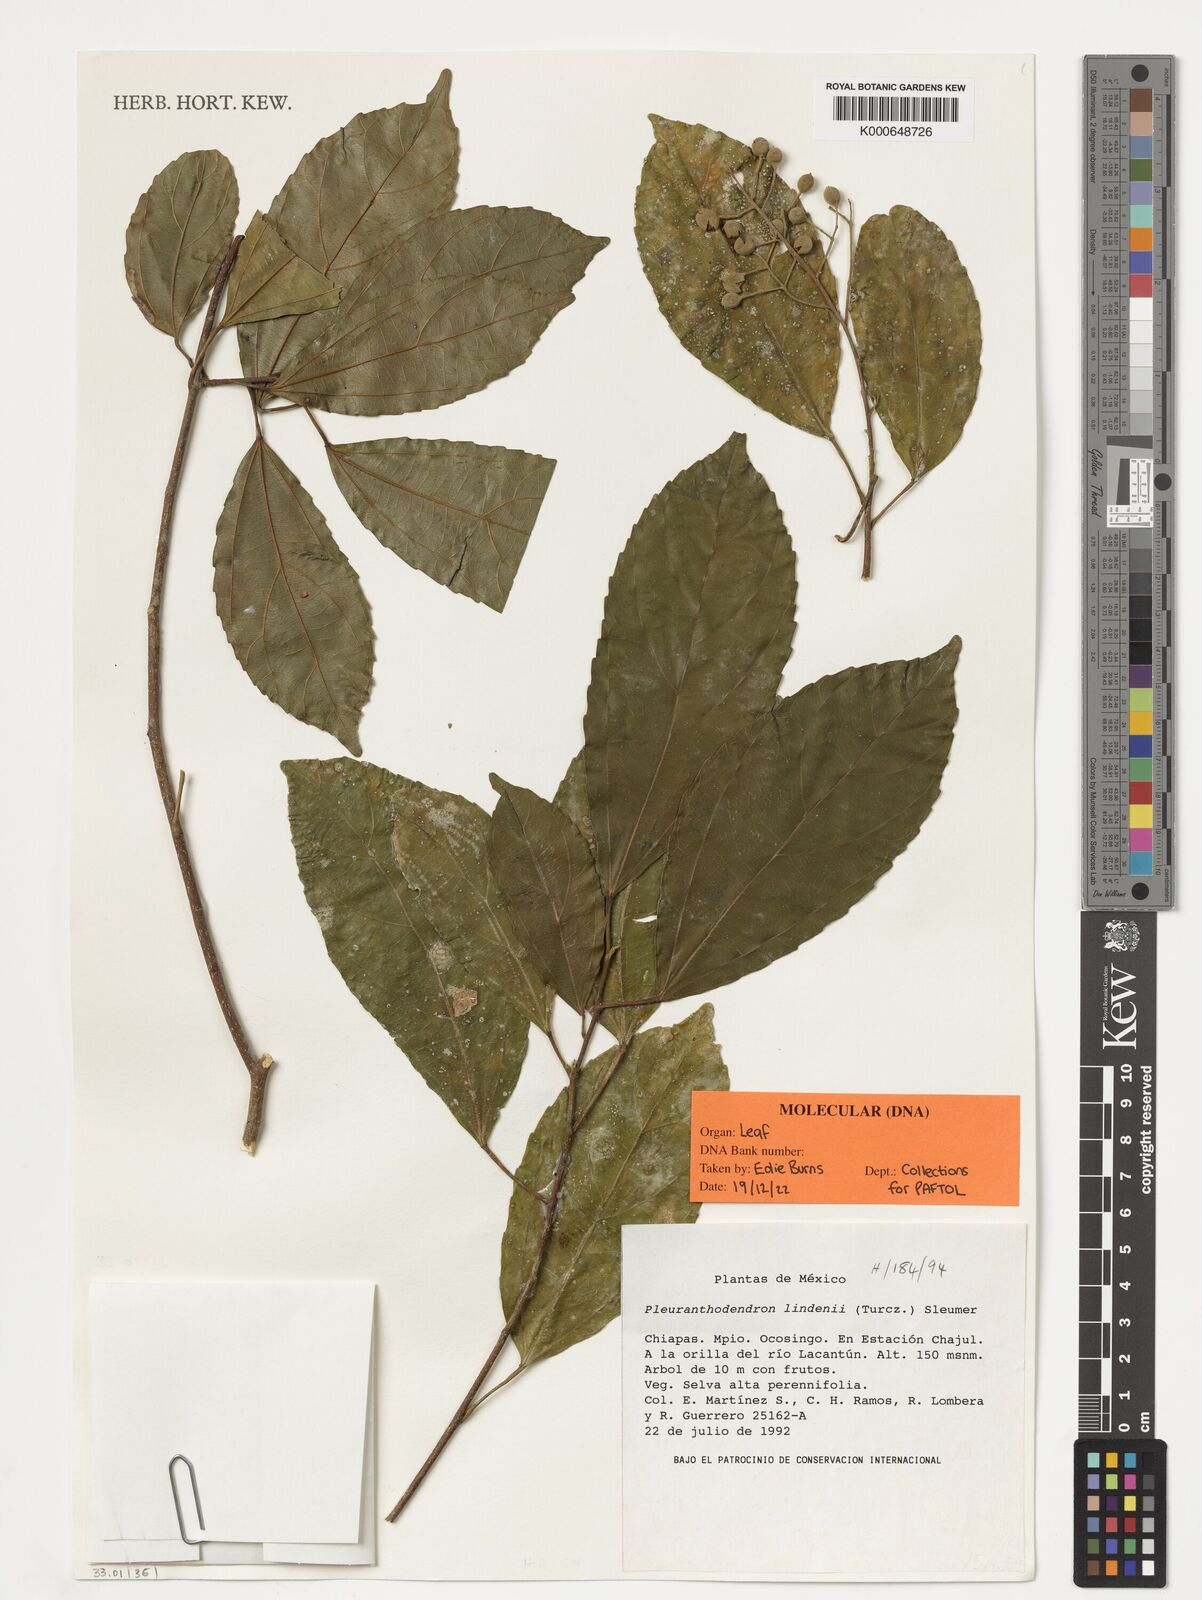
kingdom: Plantae
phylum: Tracheophyta
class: Magnoliopsida
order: Malpighiales
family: Salicaceae
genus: Pleuranthodendron
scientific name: Pleuranthodendron lindenii
